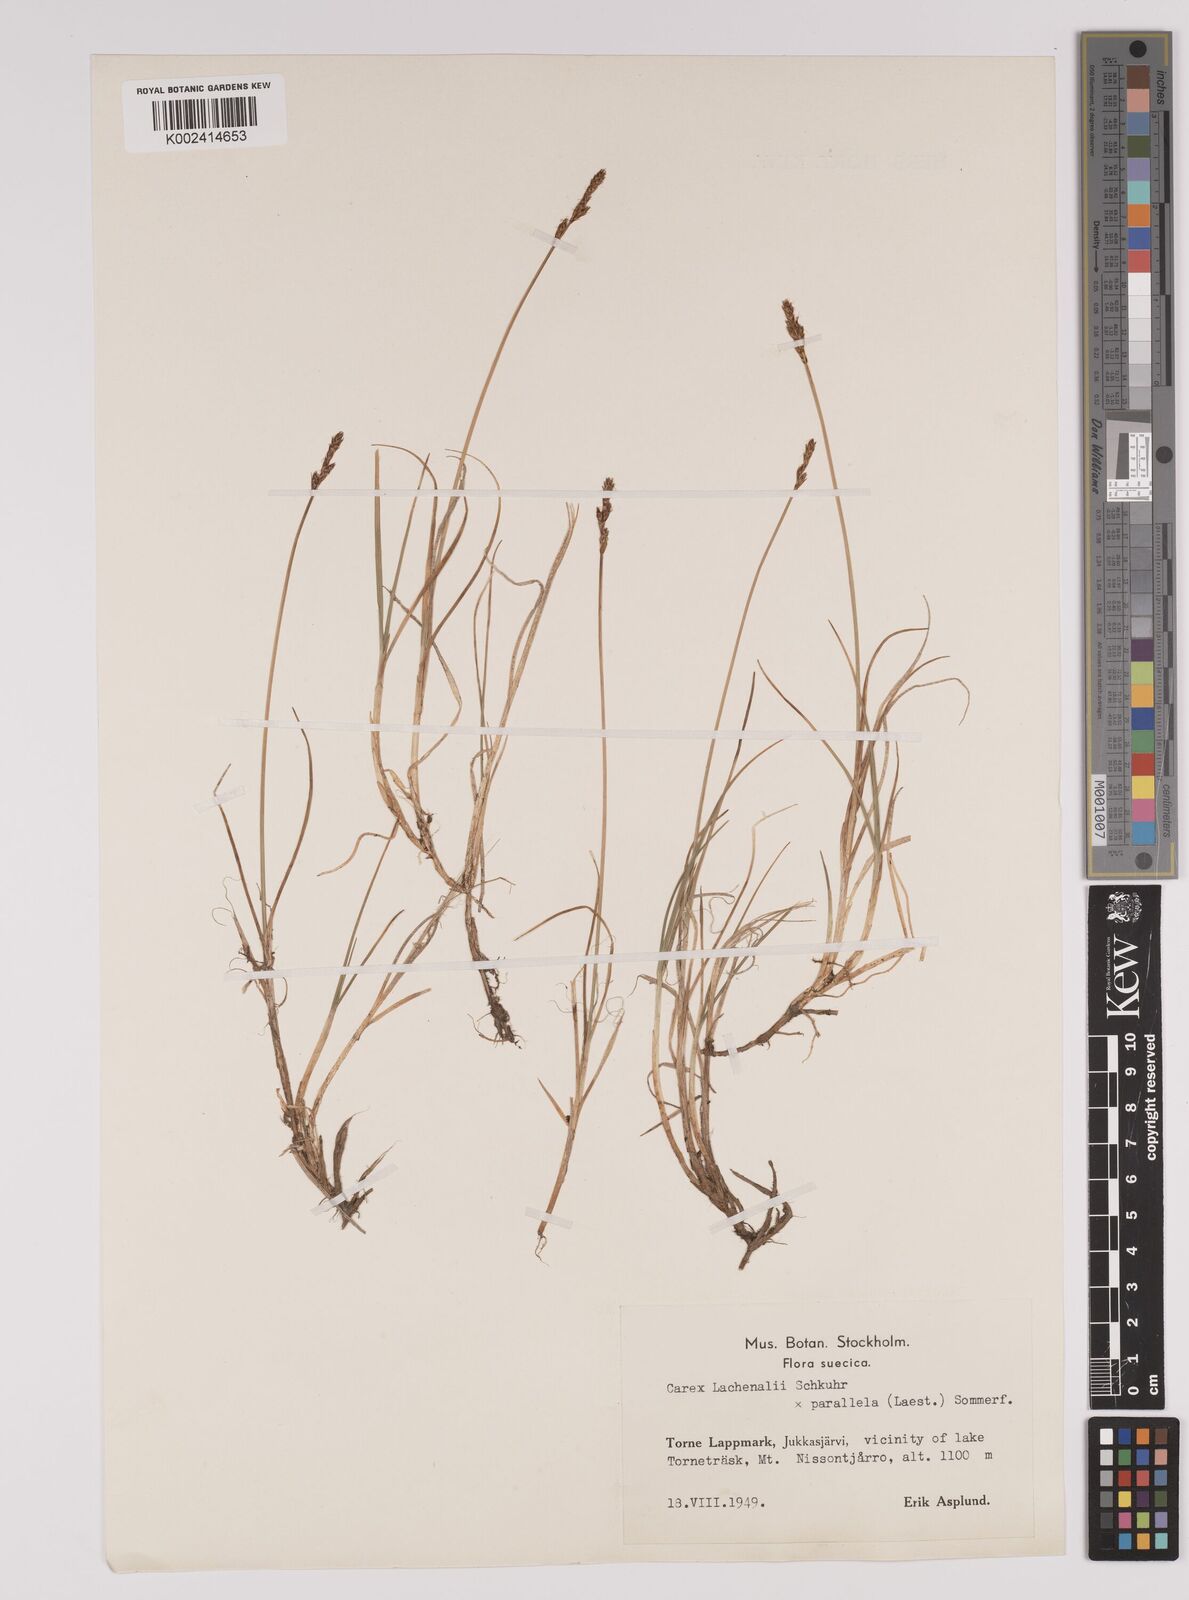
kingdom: Plantae
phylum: Tracheophyta
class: Liliopsida
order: Poales
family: Cyperaceae
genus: Carex
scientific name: Carex parallela
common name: Parallel sedge
